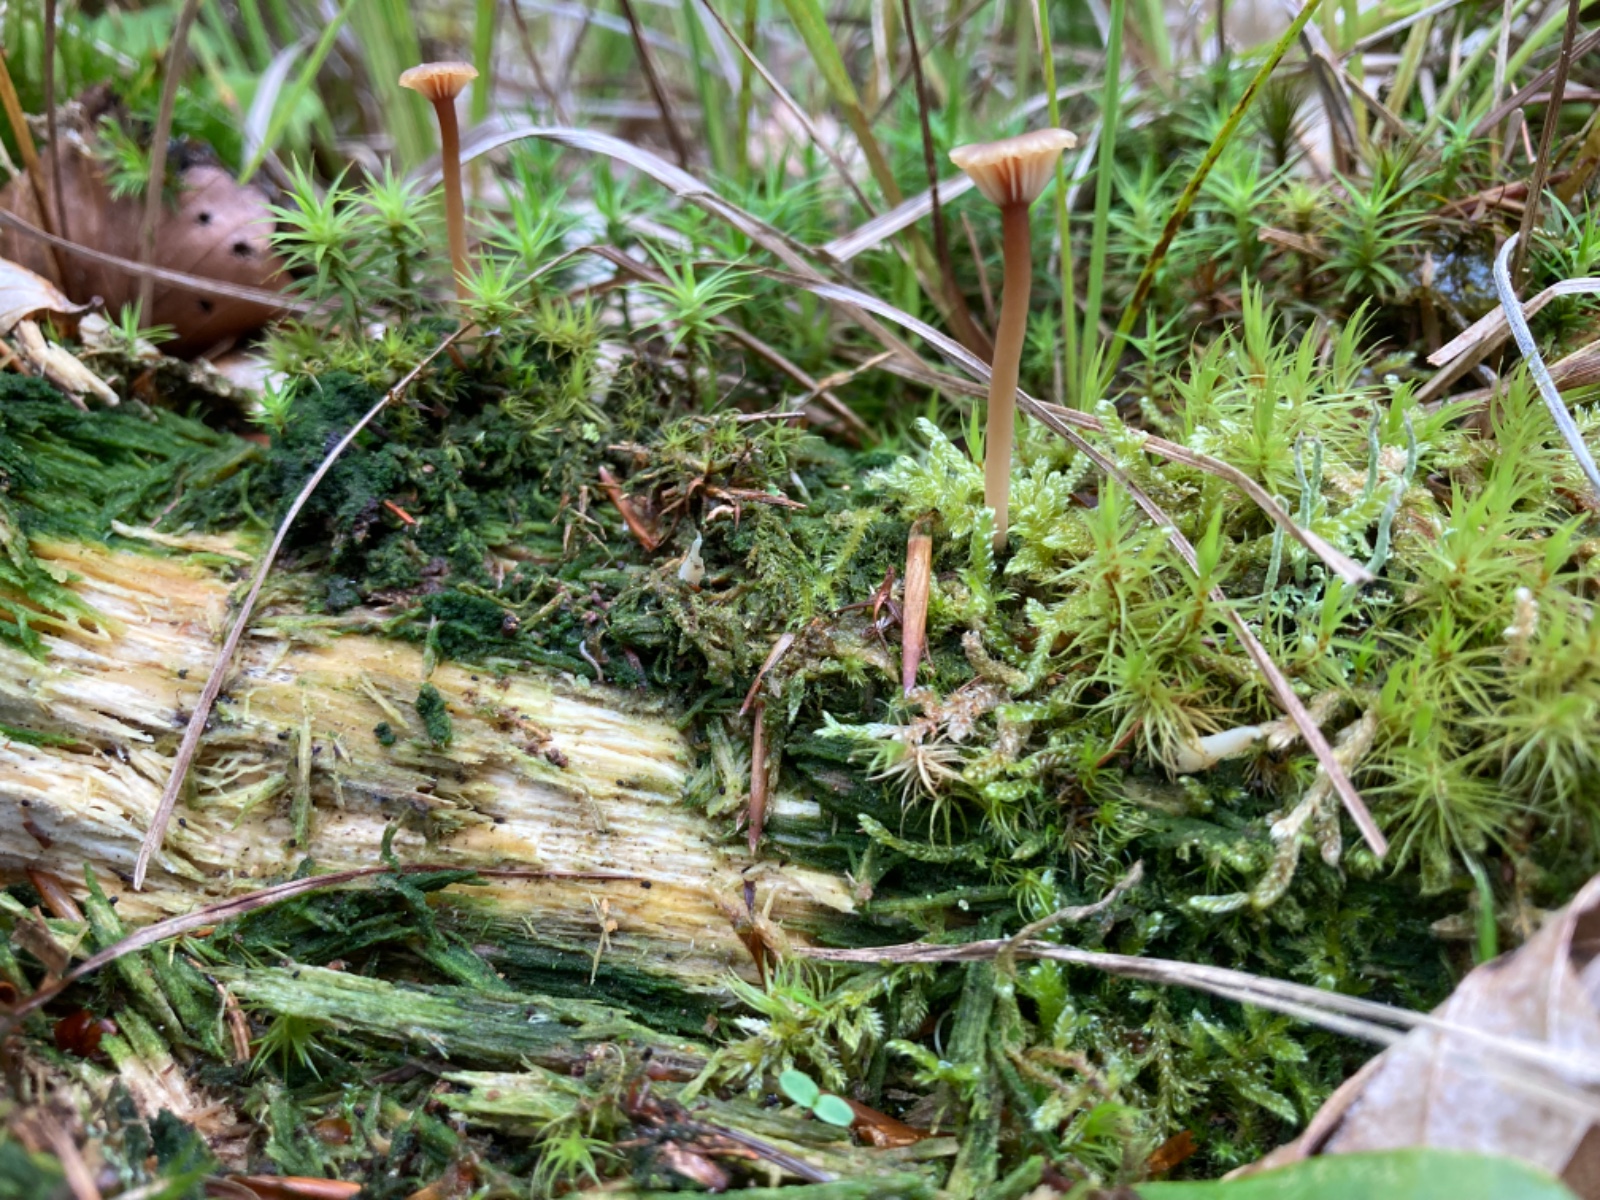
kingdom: Fungi
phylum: Basidiomycota
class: Agaricomycetes
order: Agaricales
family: Hygrophoraceae
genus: Lichenomphalia
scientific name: Lichenomphalia umbellifera
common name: tørve-lavhat
